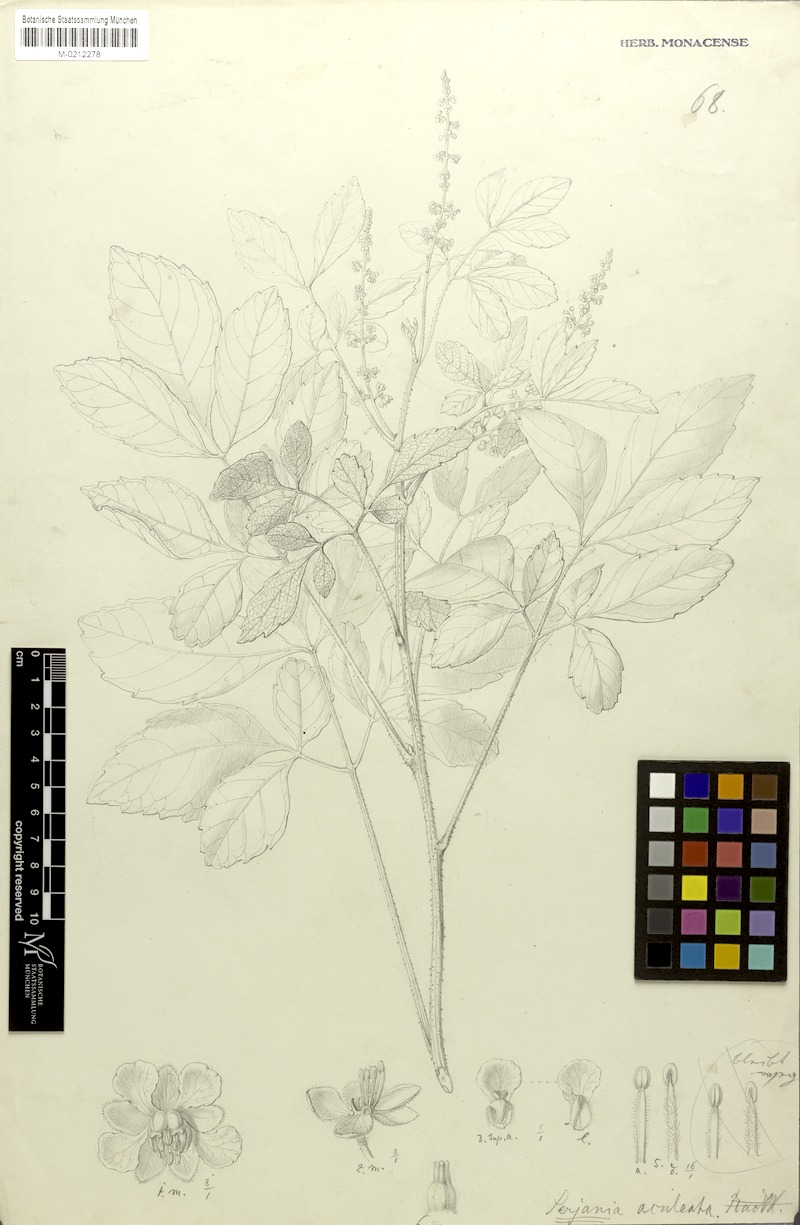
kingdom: Plantae
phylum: Tracheophyta
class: Magnoliopsida
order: Sapindales
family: Sapindaceae
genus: Serjania
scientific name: Serjania aculeata
